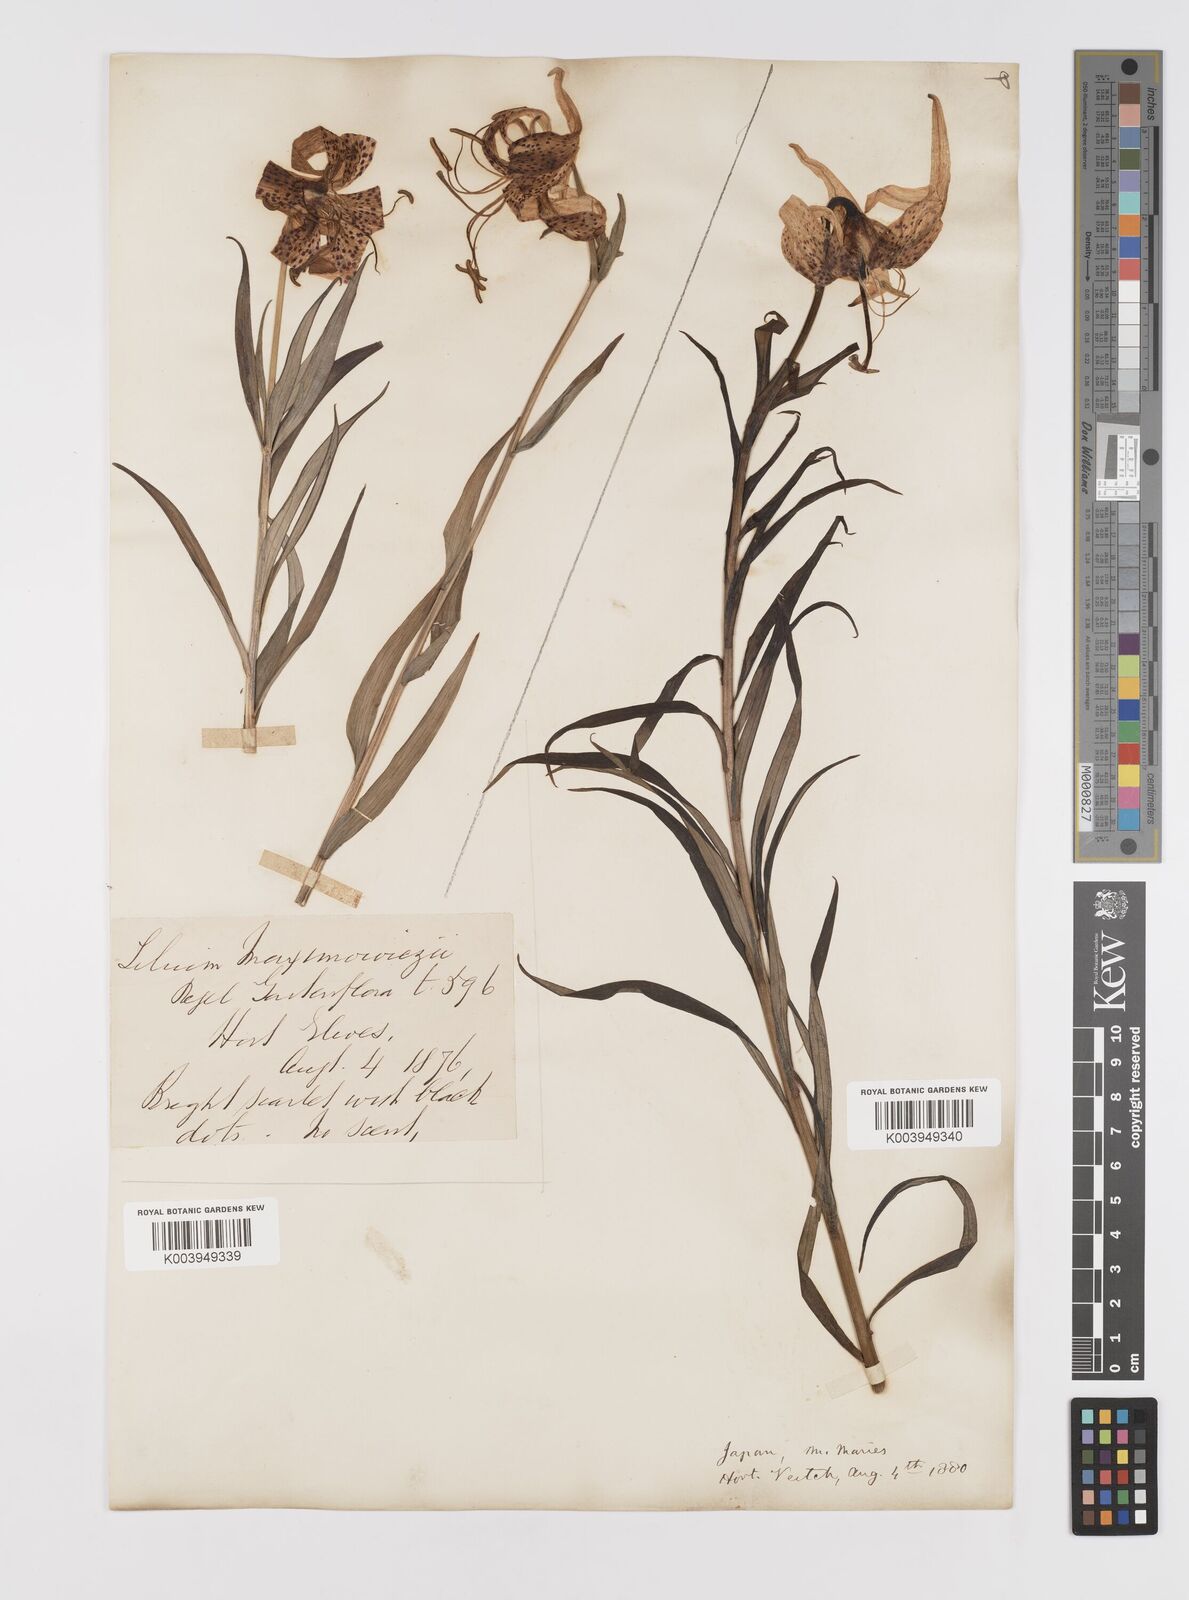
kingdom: Plantae
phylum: Tracheophyta
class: Liliopsida
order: Liliales
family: Liliaceae
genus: Lilium
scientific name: Lilium leichtlinii
